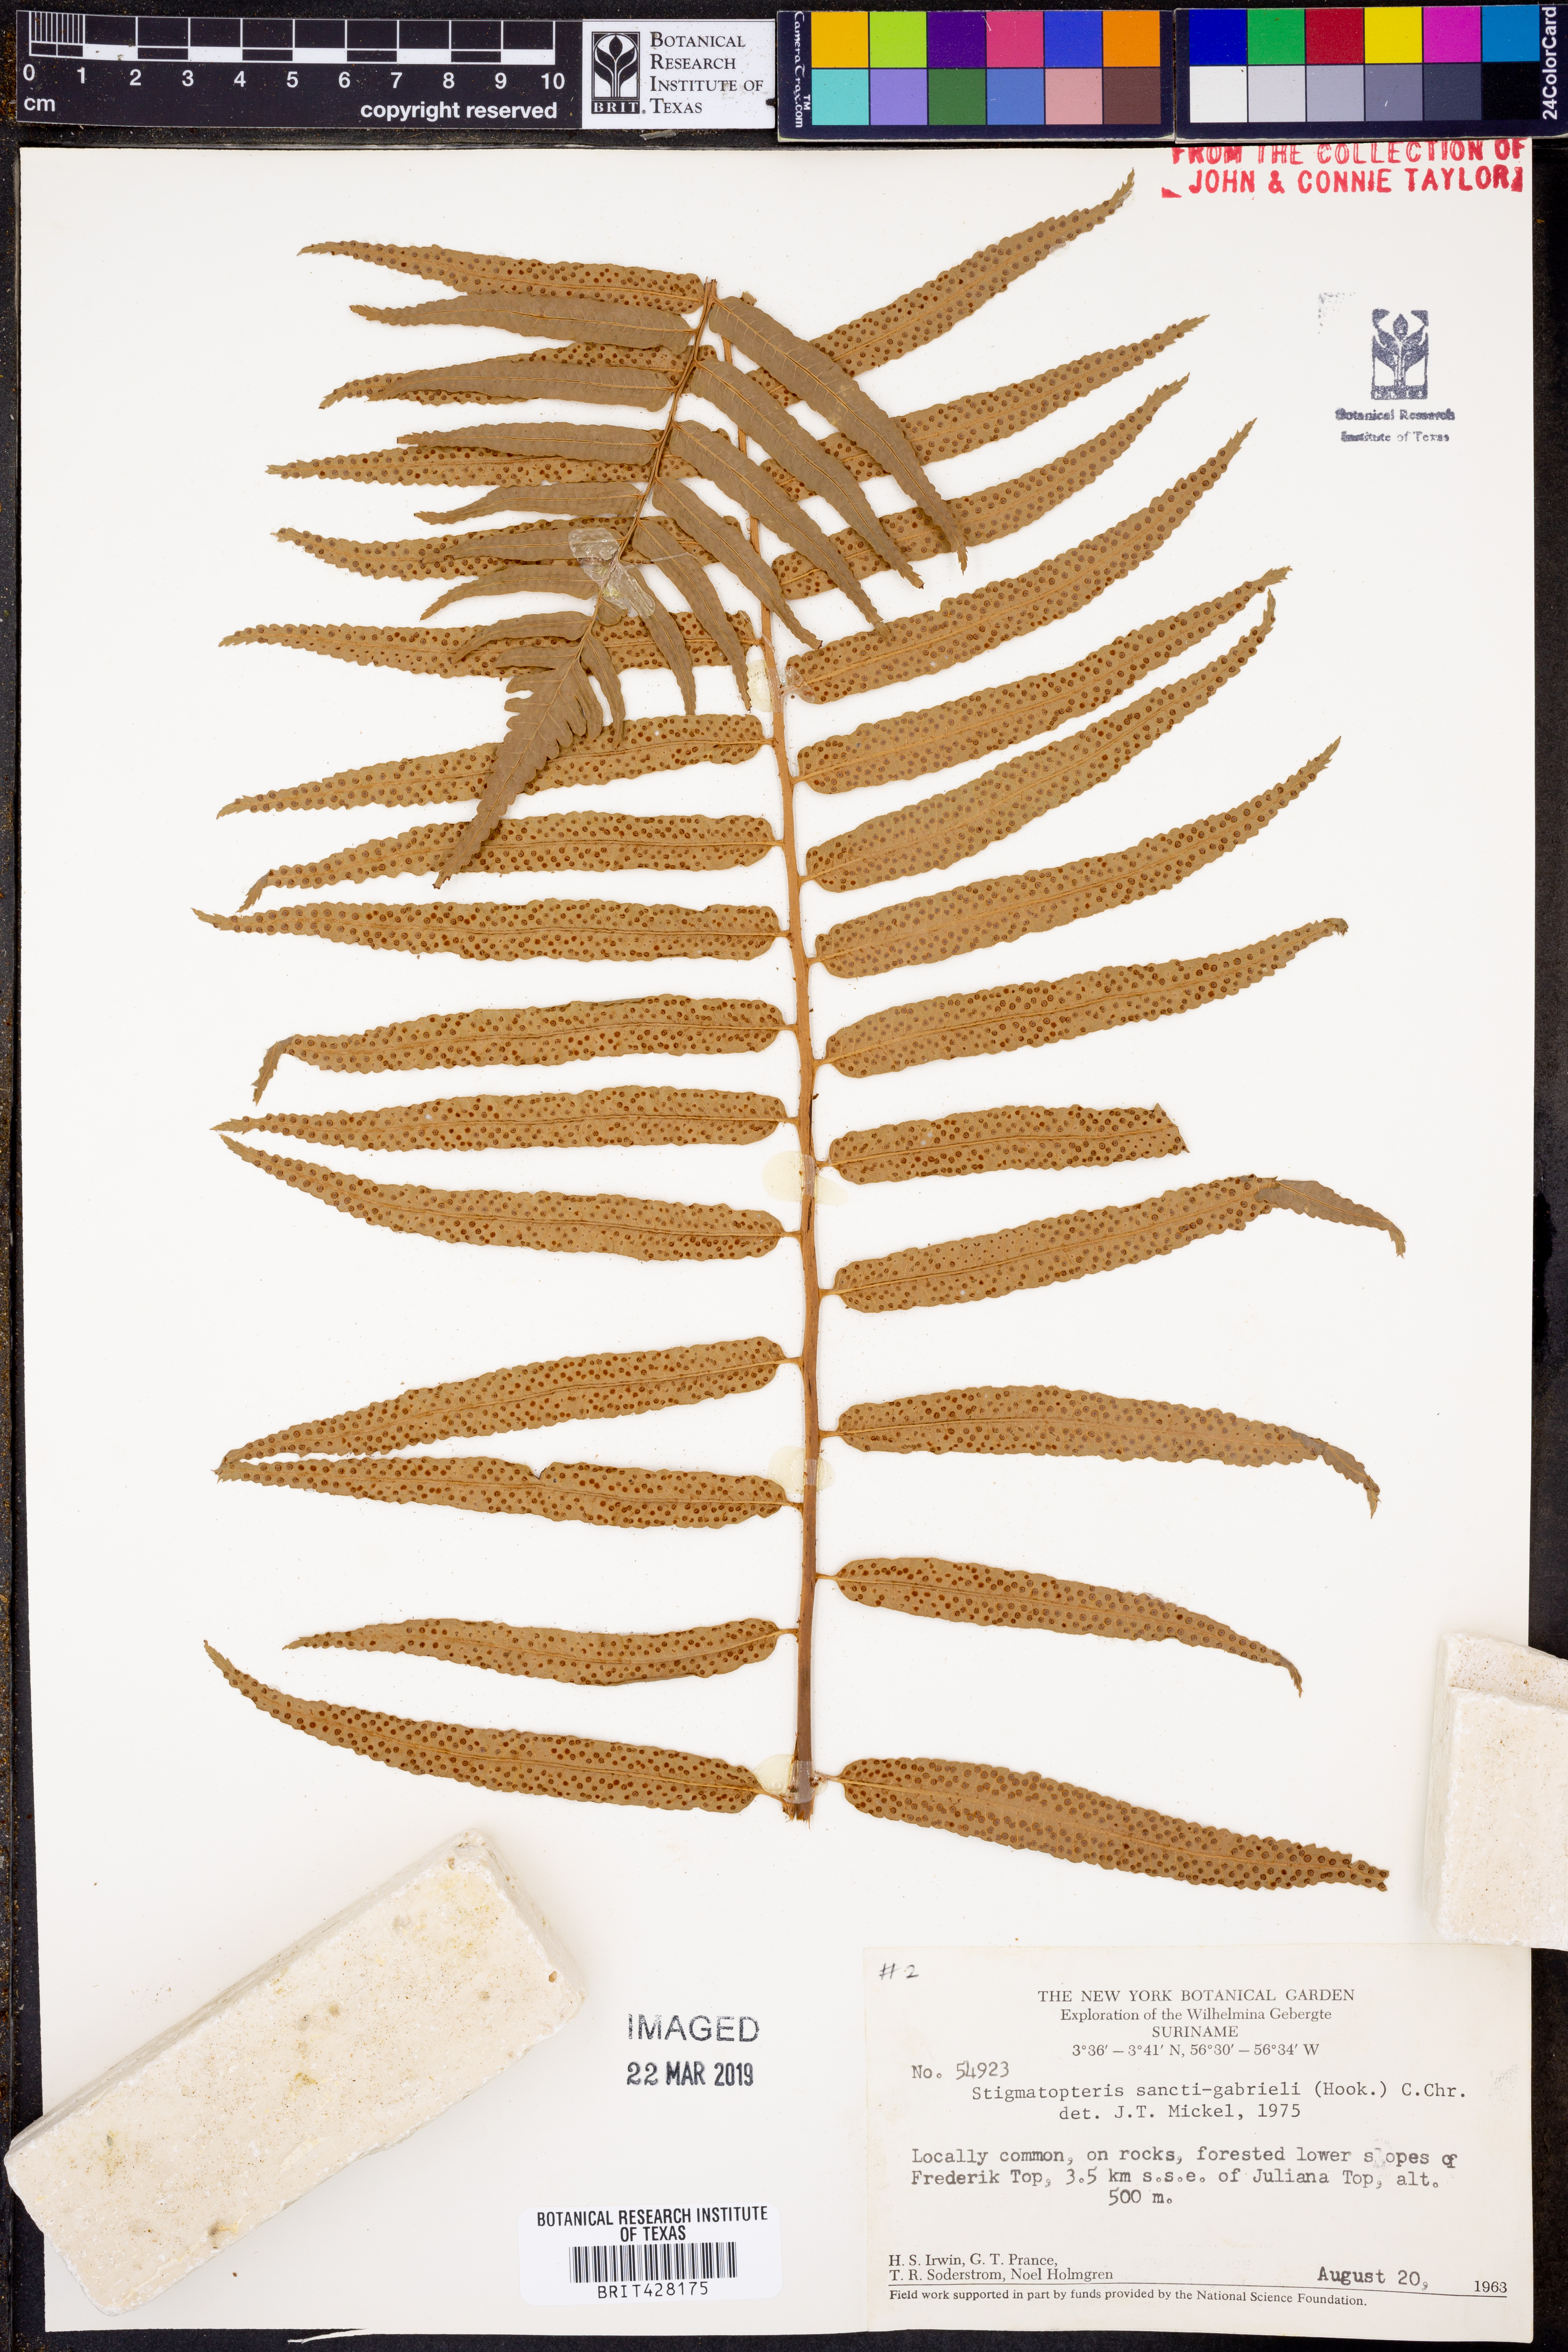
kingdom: Plantae
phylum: Tracheophyta
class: Polypodiopsida
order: Polypodiales
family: Dryopteridaceae
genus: Cyclodium
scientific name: Cyclodium guianense
